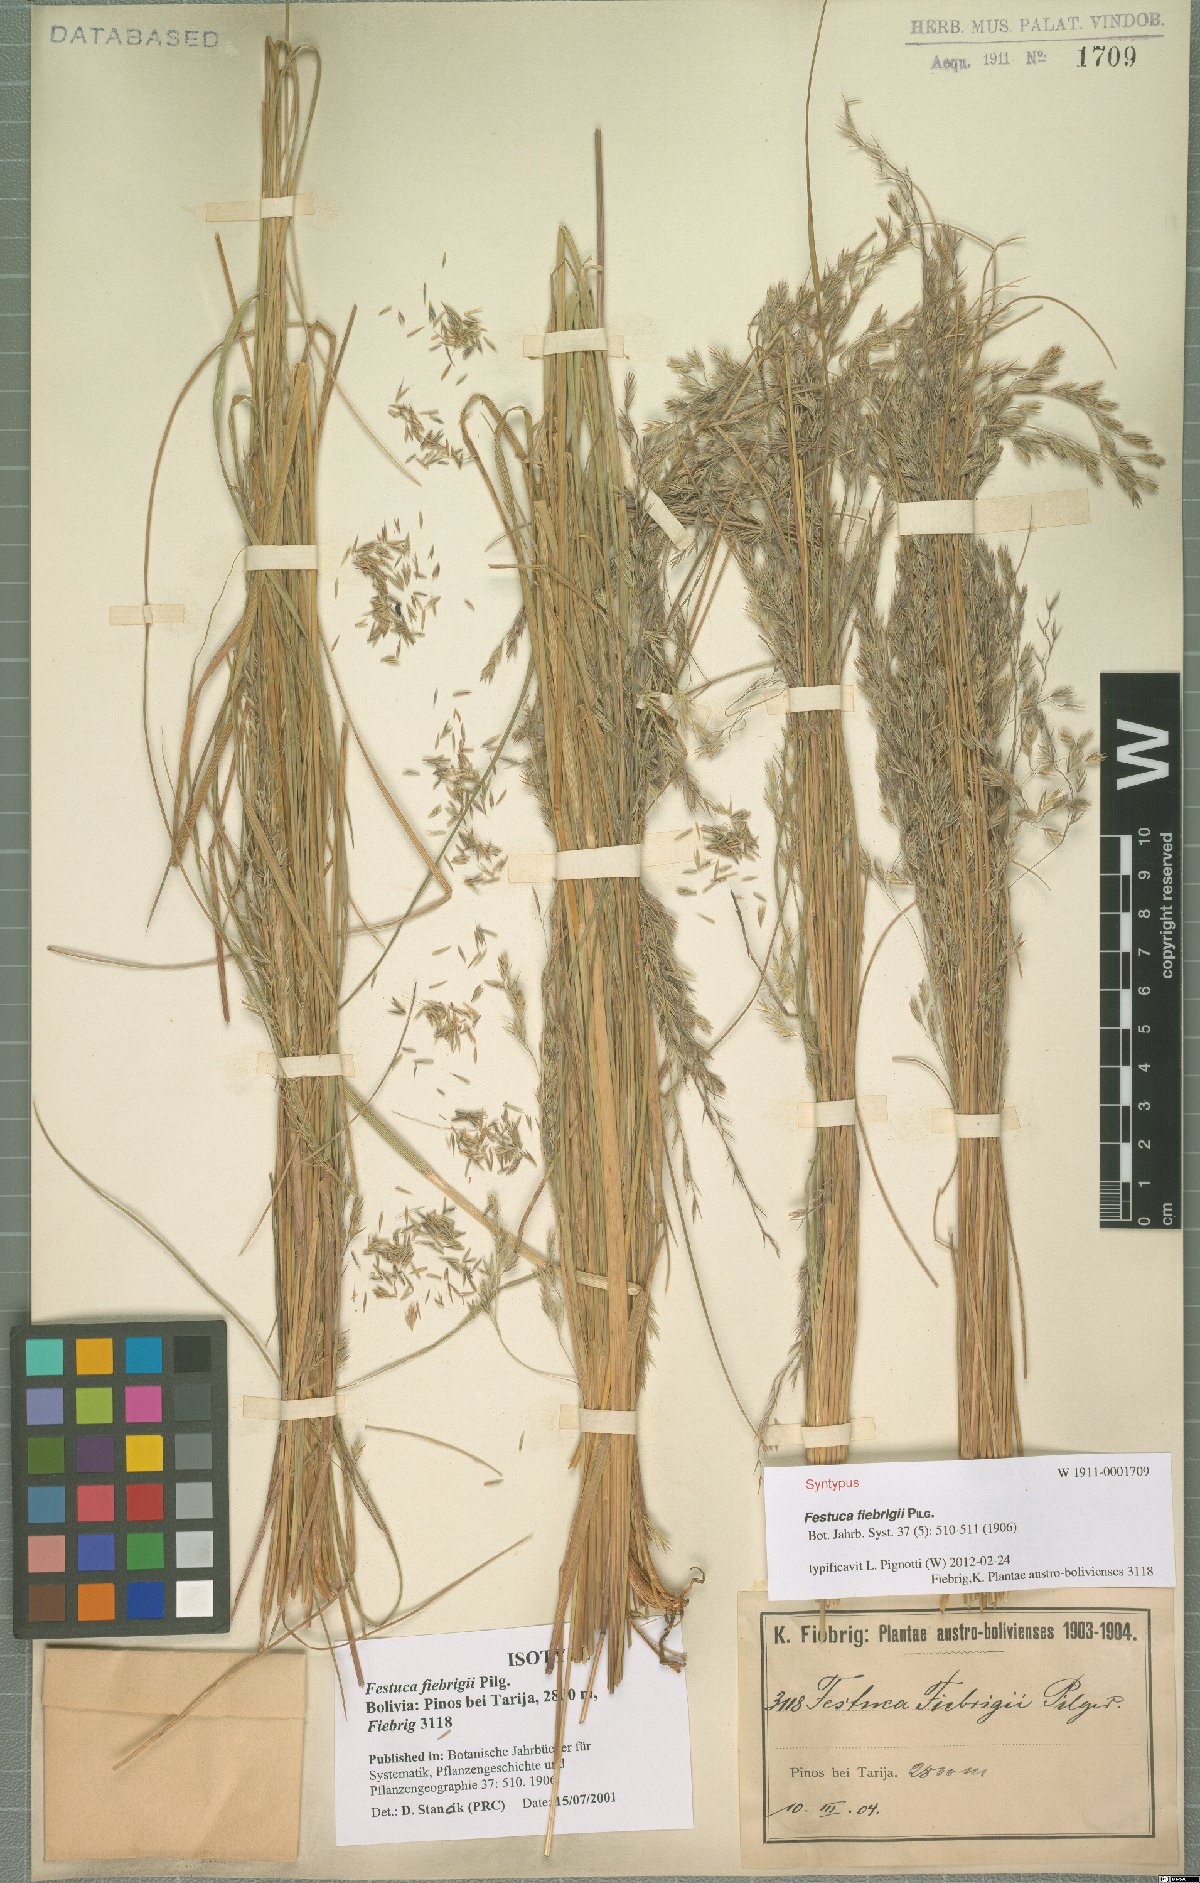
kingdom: Plantae
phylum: Tracheophyta
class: Liliopsida
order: Poales
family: Poaceae
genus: Festuca
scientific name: Festuca fiebrigii
